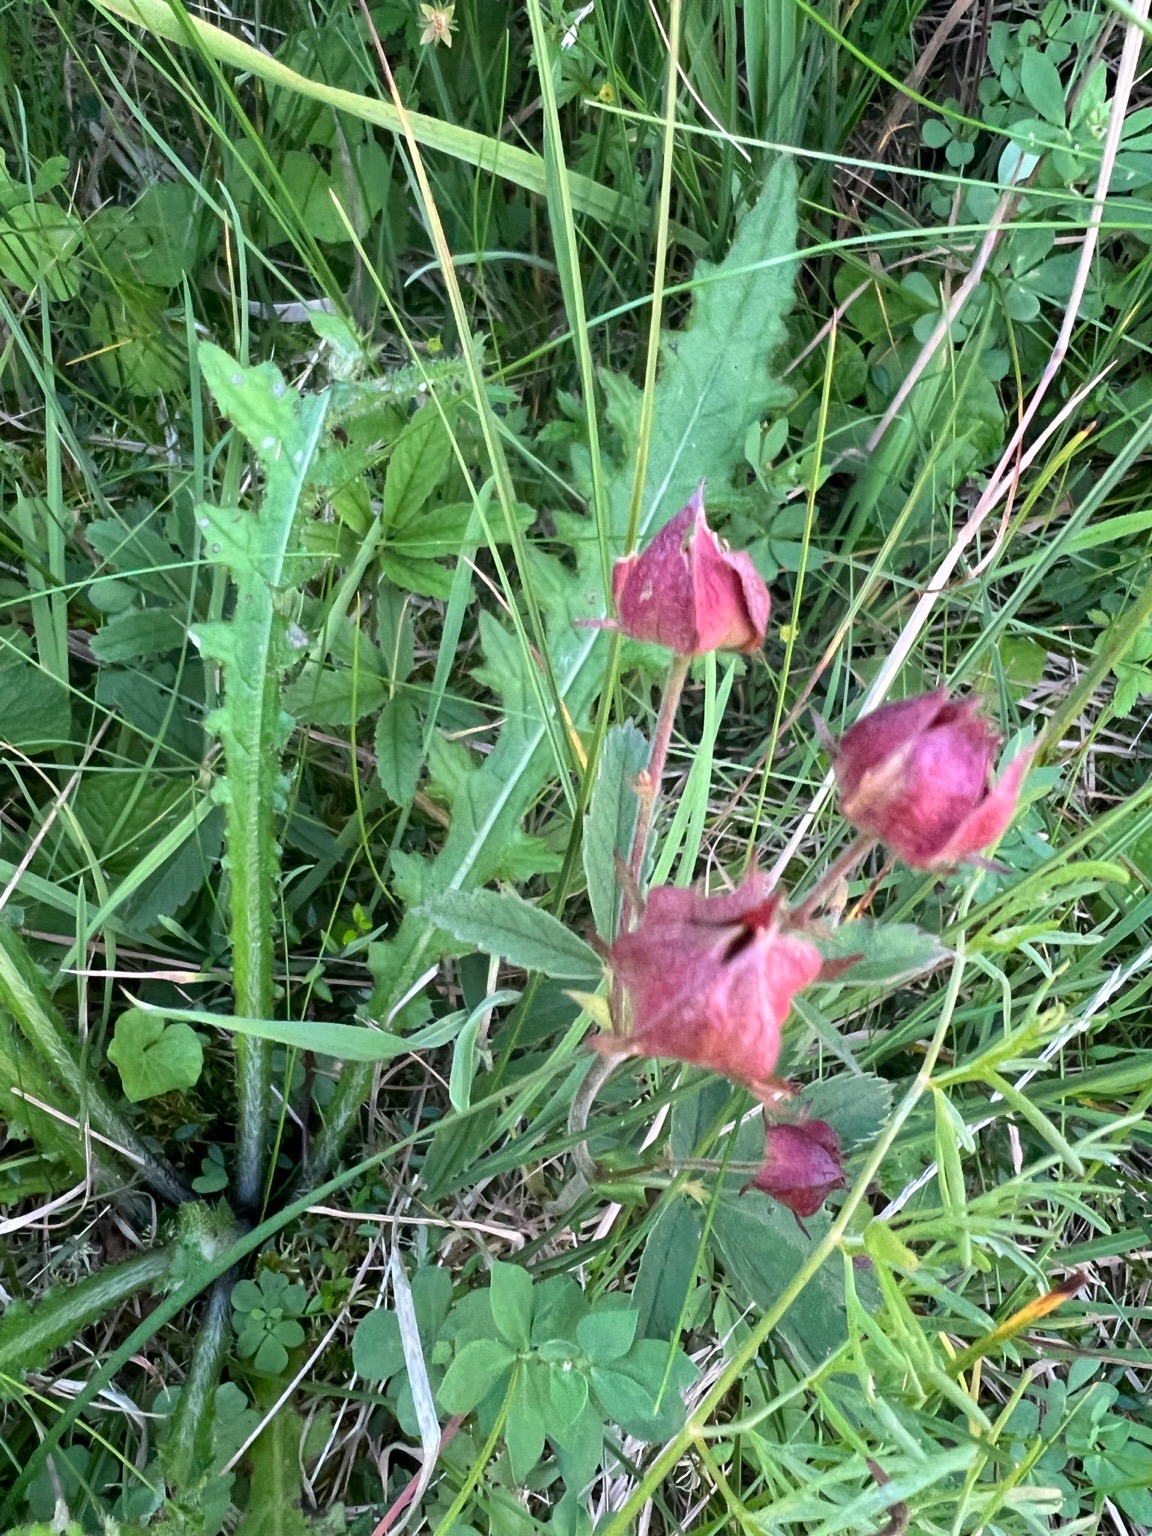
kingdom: Plantae
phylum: Tracheophyta
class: Magnoliopsida
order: Rosales
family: Rosaceae
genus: Comarum
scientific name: Comarum palustre
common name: Kragefod
